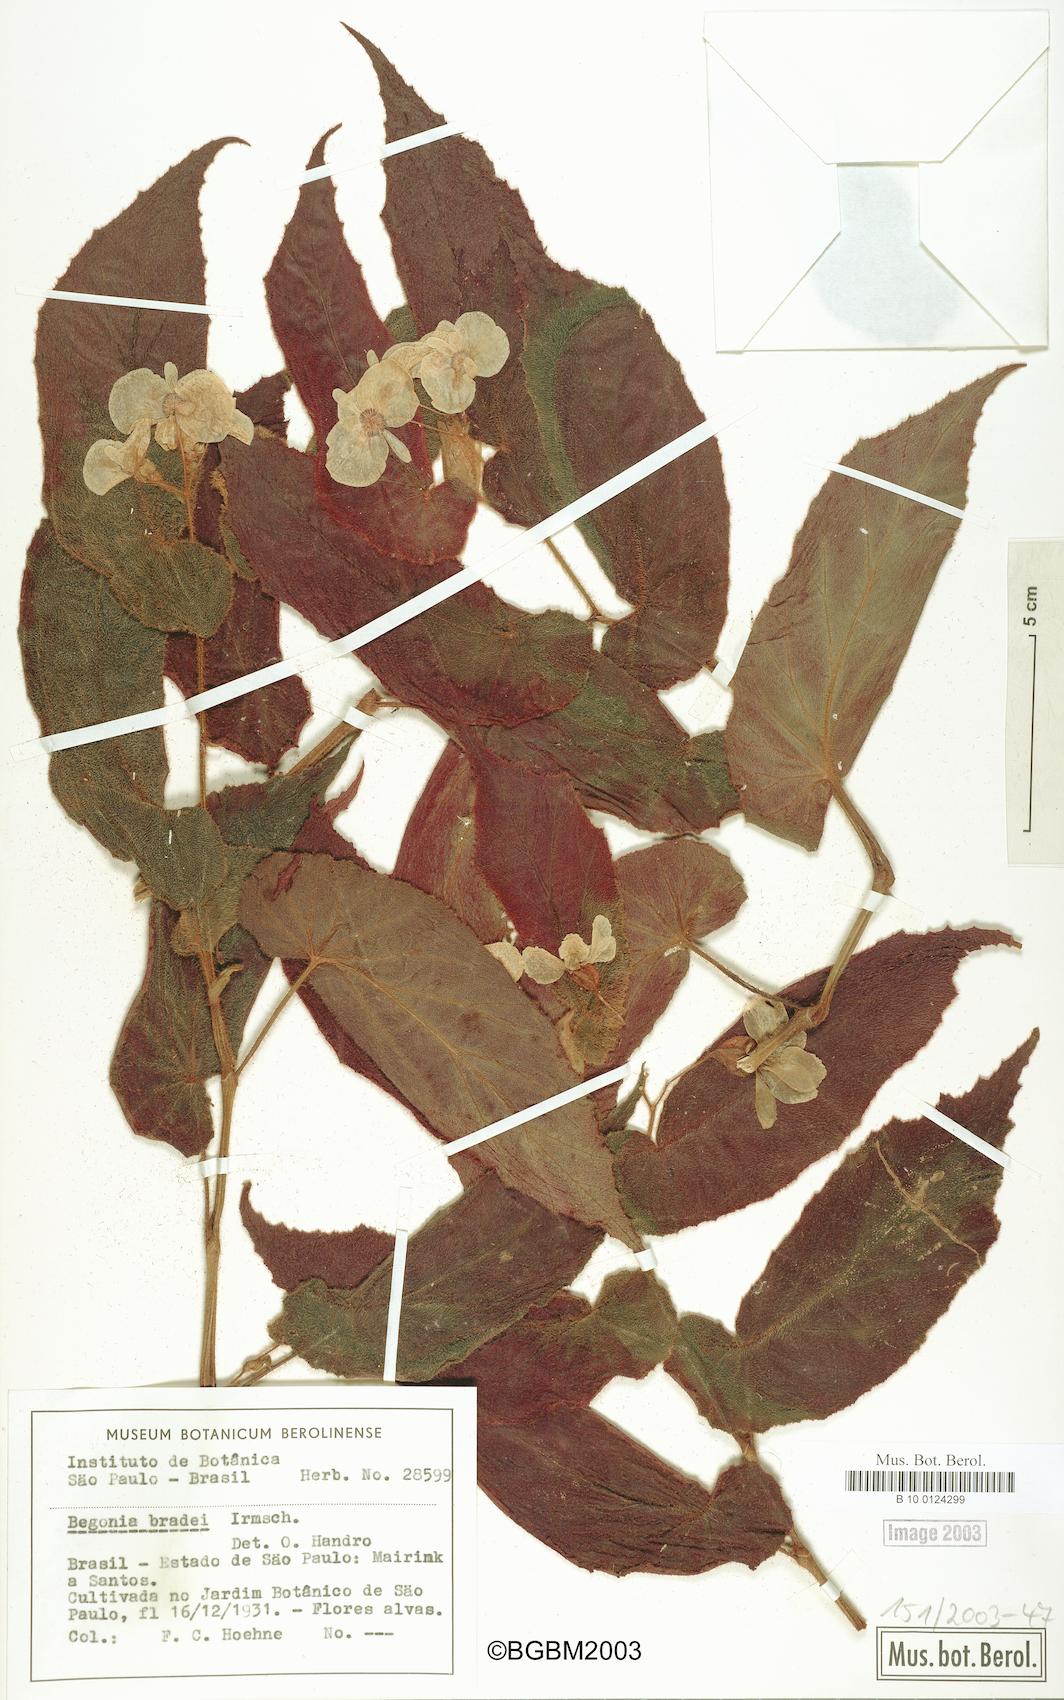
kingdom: Plantae
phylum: Tracheophyta
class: Magnoliopsida
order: Cucurbitales
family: Begoniaceae
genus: Begonia
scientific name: Begonia bradei
